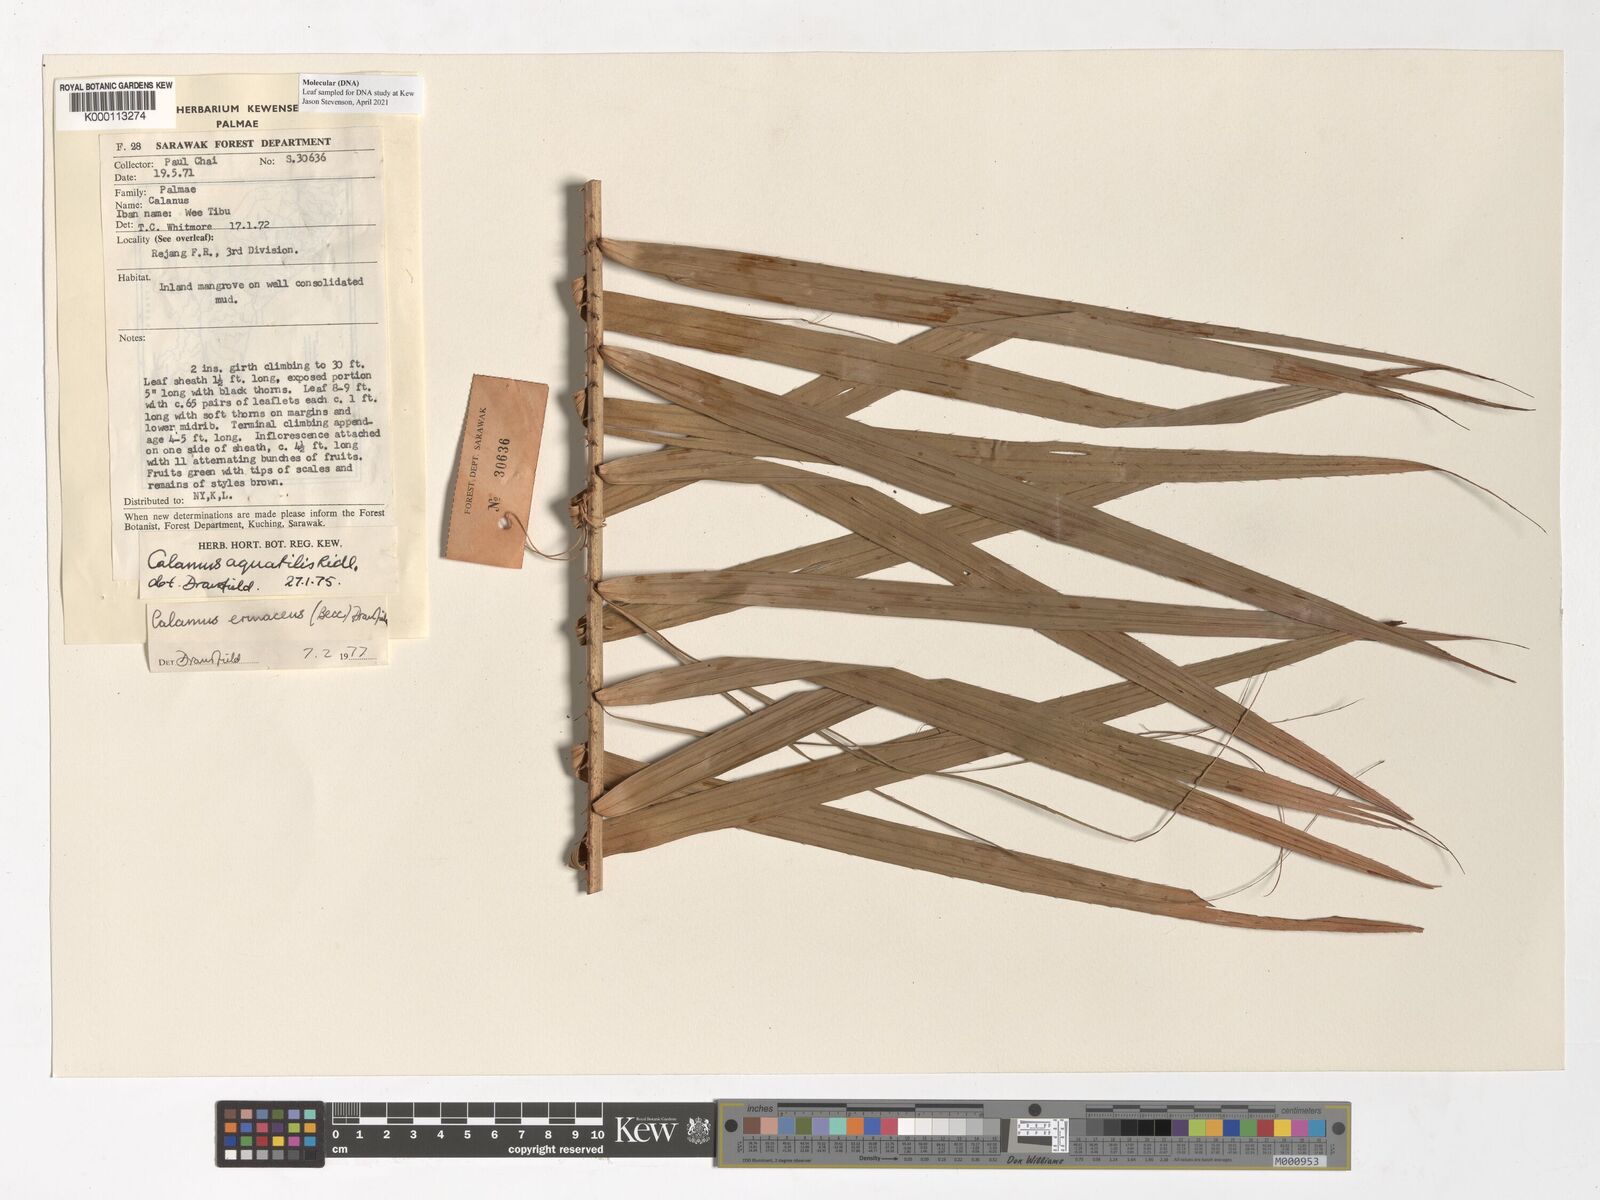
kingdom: Plantae
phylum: Tracheophyta
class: Liliopsida
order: Arecales
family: Arecaceae
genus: Calamus
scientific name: Calamus
